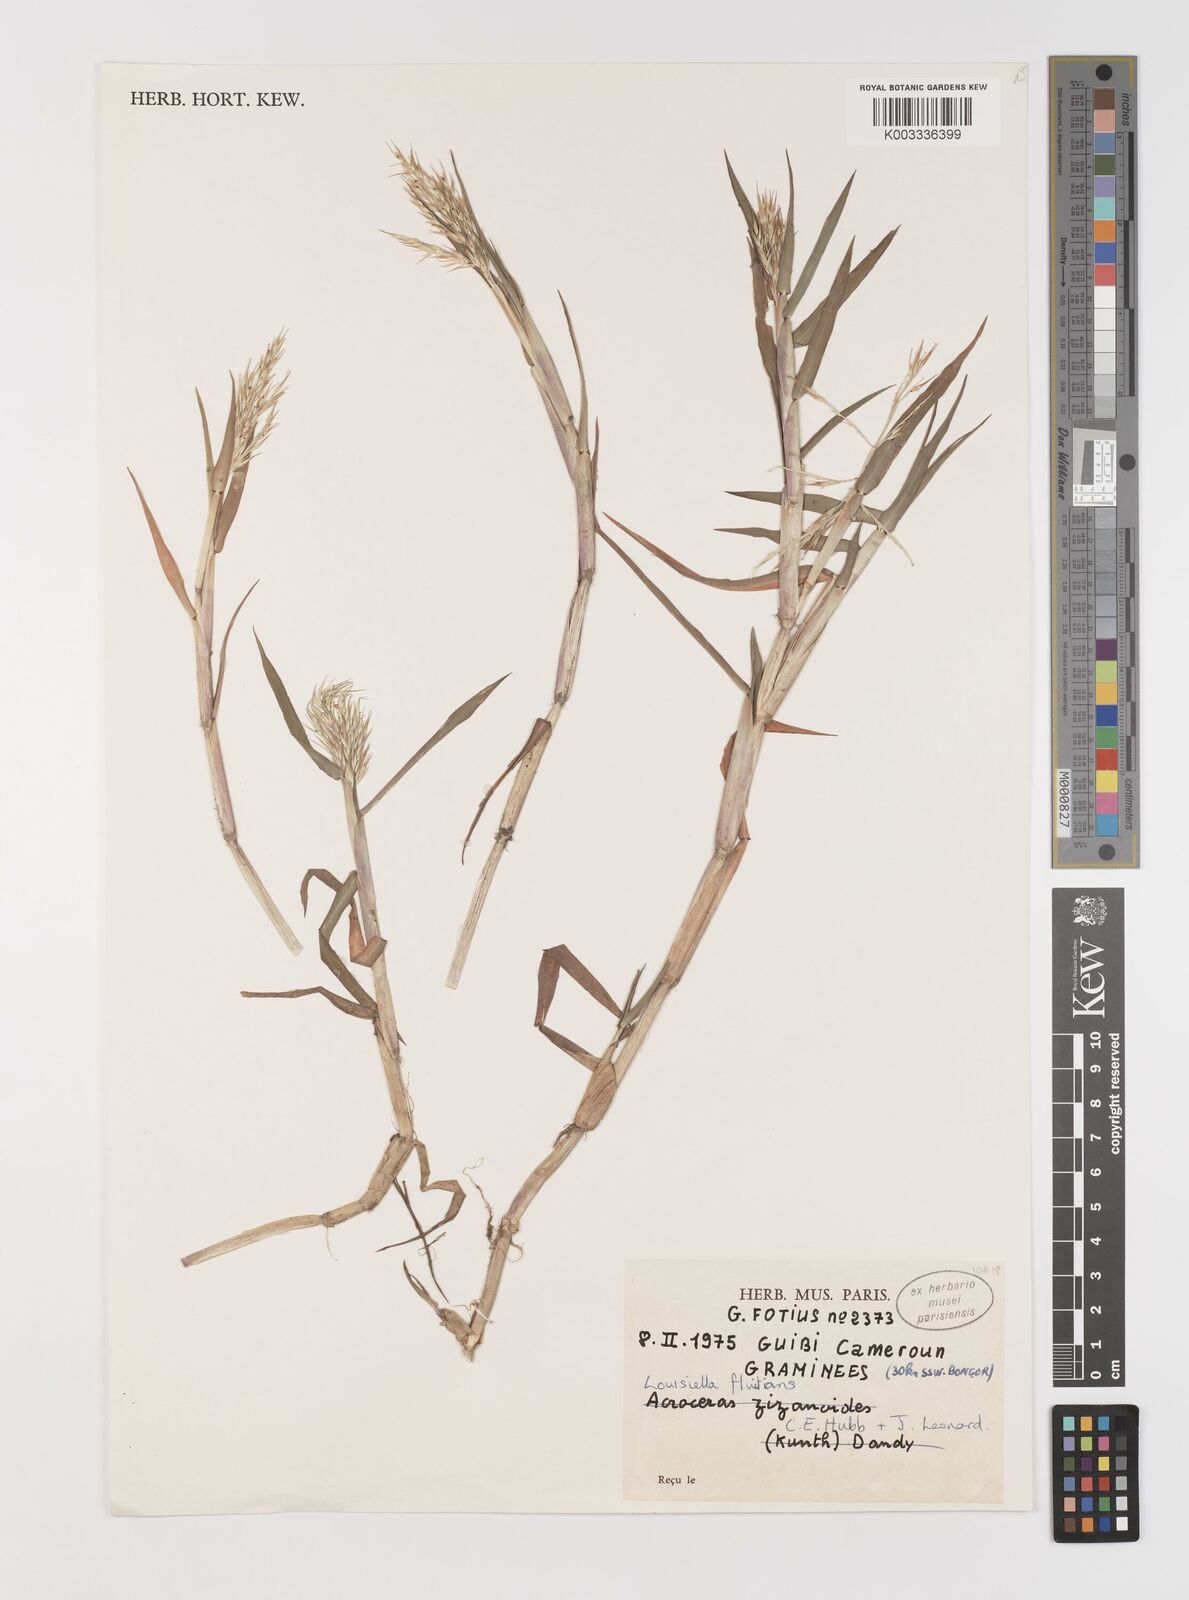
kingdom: Plantae
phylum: Tracheophyta
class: Liliopsida
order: Poales
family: Poaceae
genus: Louisiella
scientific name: Louisiella fluitans
